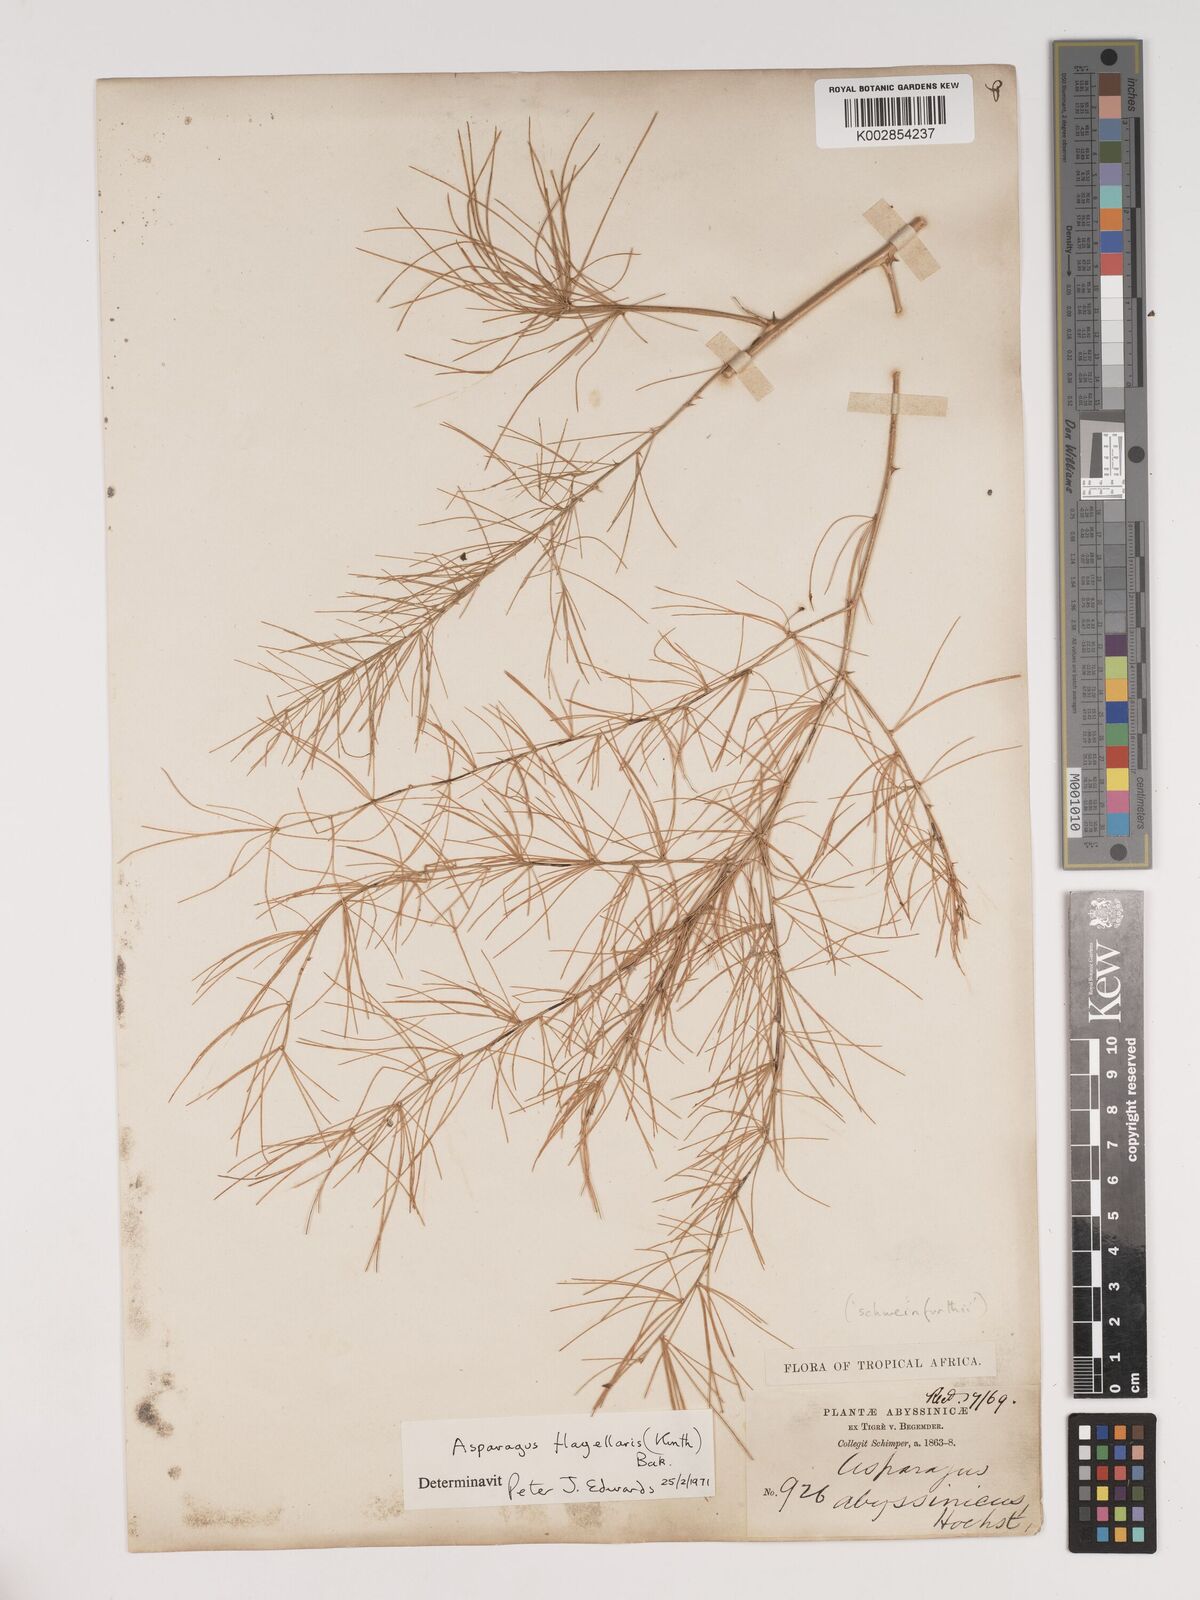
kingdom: Plantae
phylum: Tracheophyta
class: Liliopsida
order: Asparagales
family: Asparagaceae
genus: Asparagus
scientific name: Asparagus flagellaris
